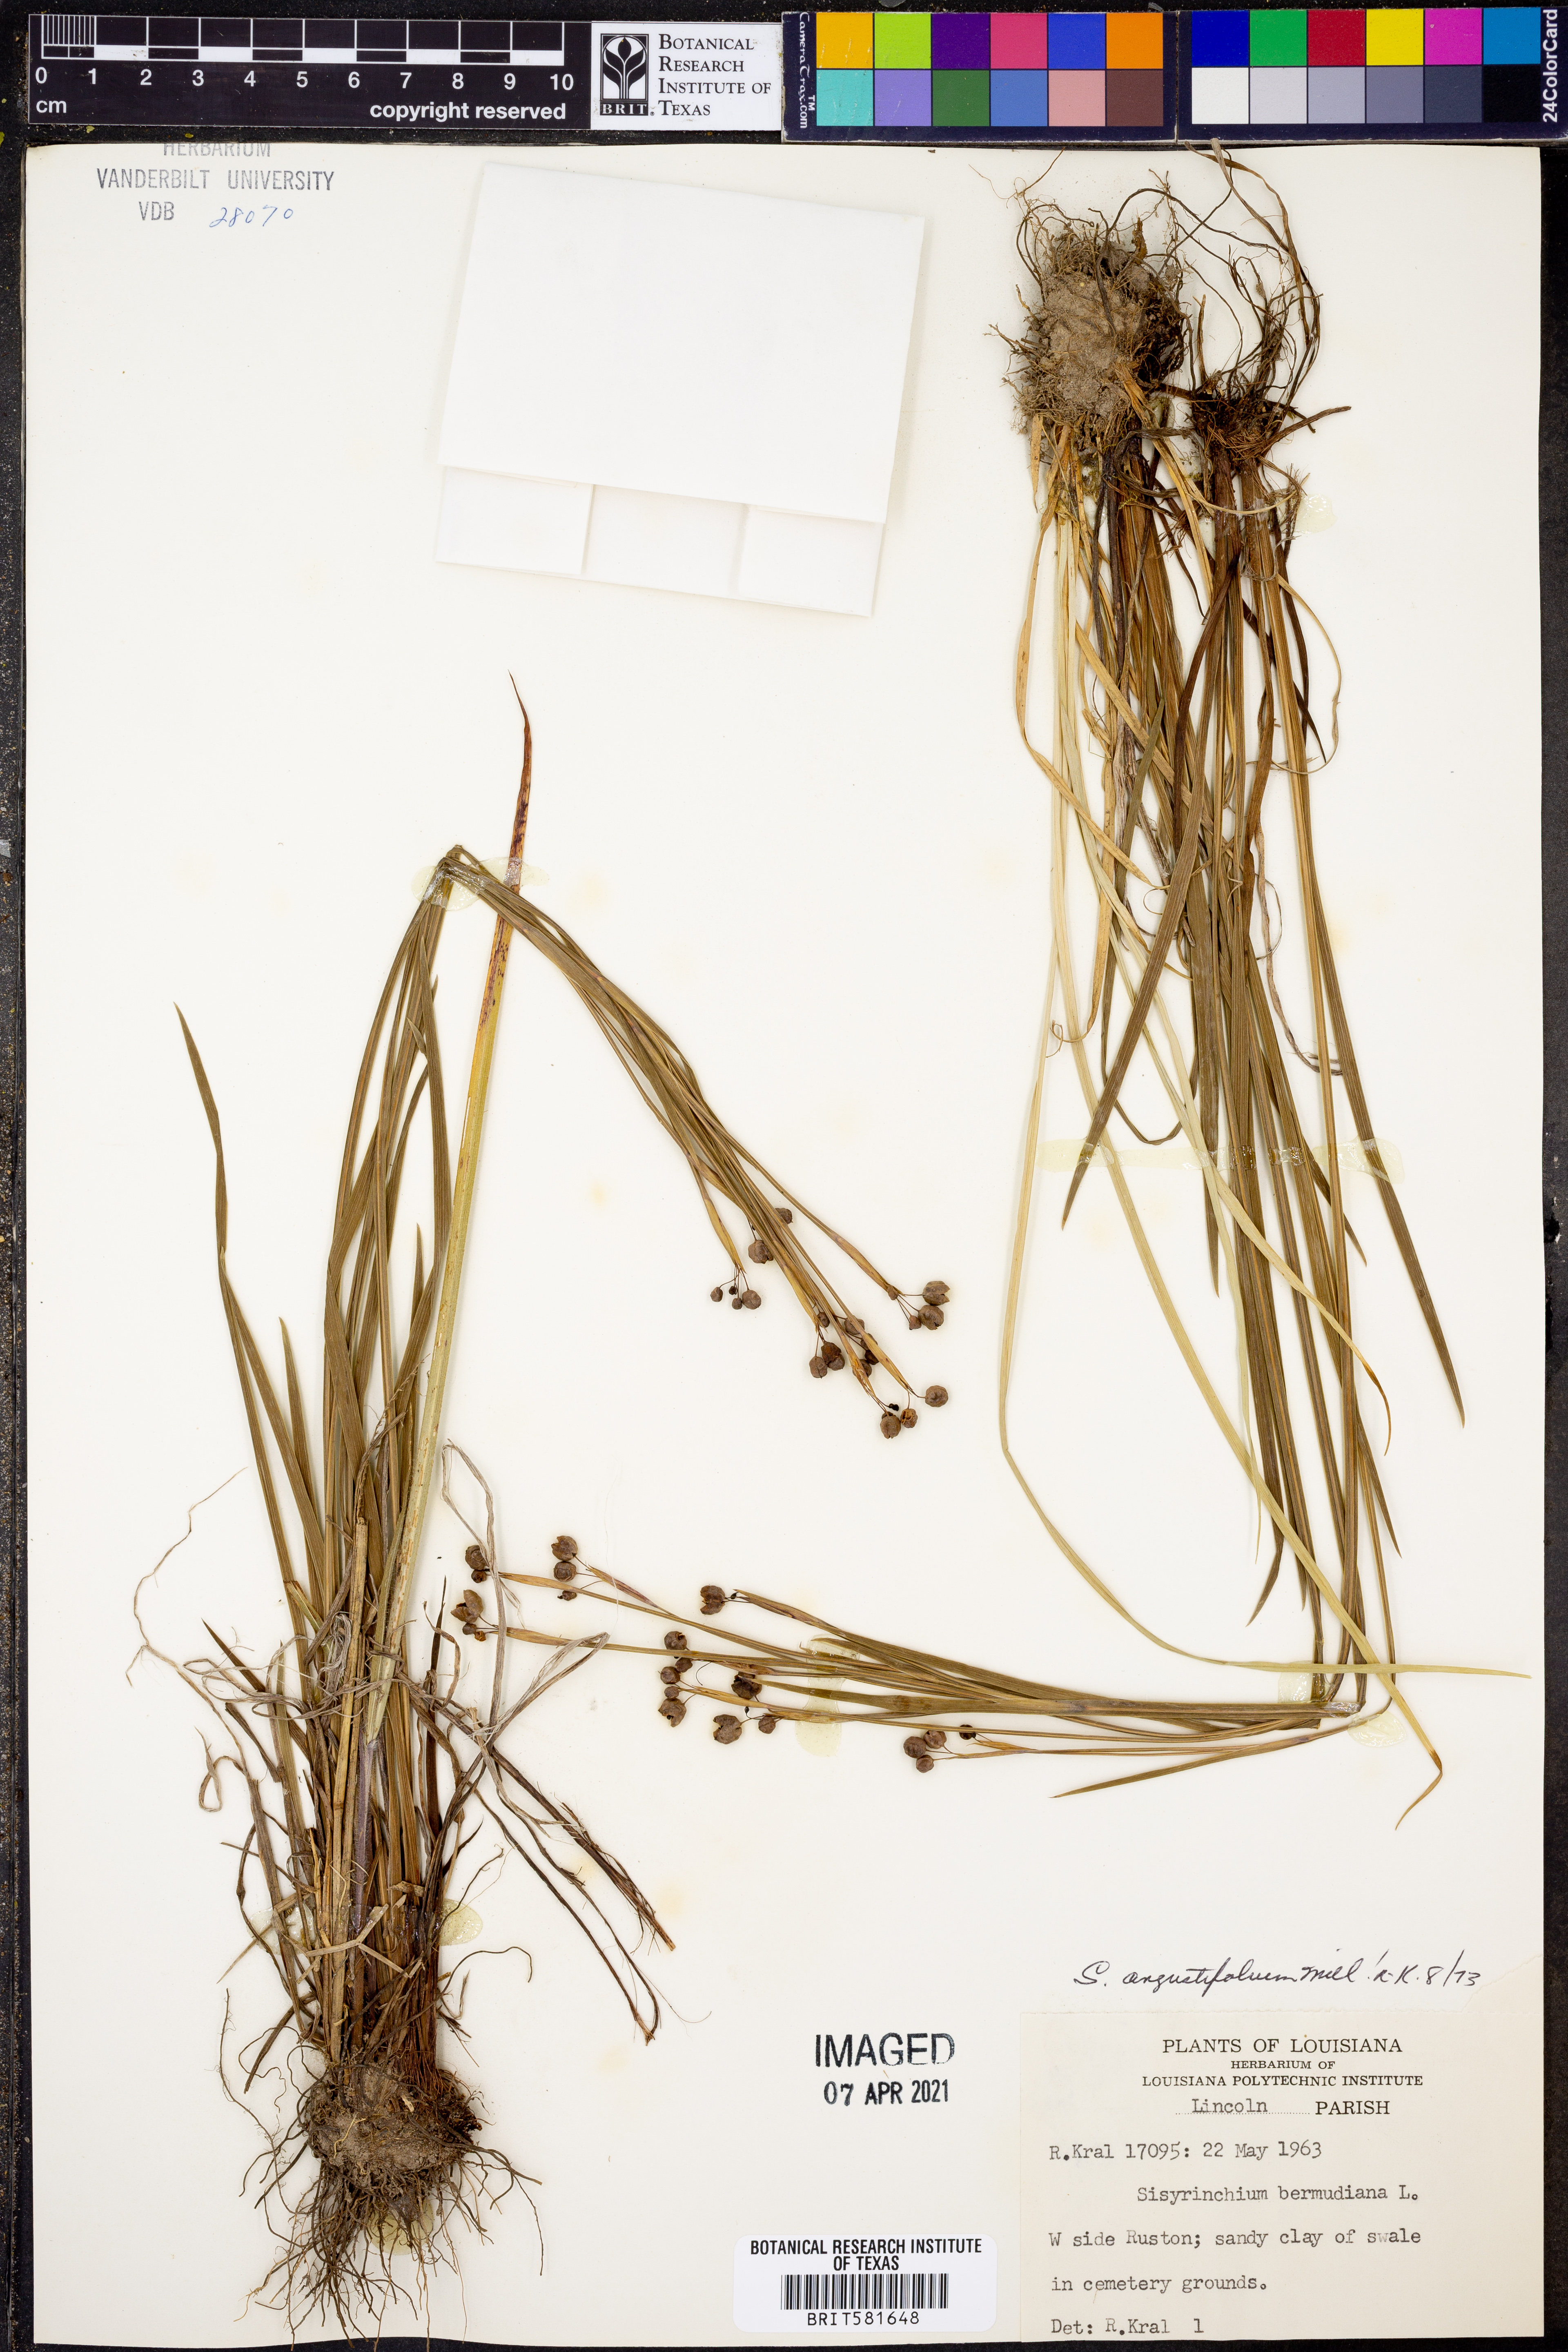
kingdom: Plantae
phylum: Tracheophyta
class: Liliopsida
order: Asparagales
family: Iridaceae
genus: Sisyrinchium
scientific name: Sisyrinchium angustifolium
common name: Narrow-leaf blue-eyed-grass
